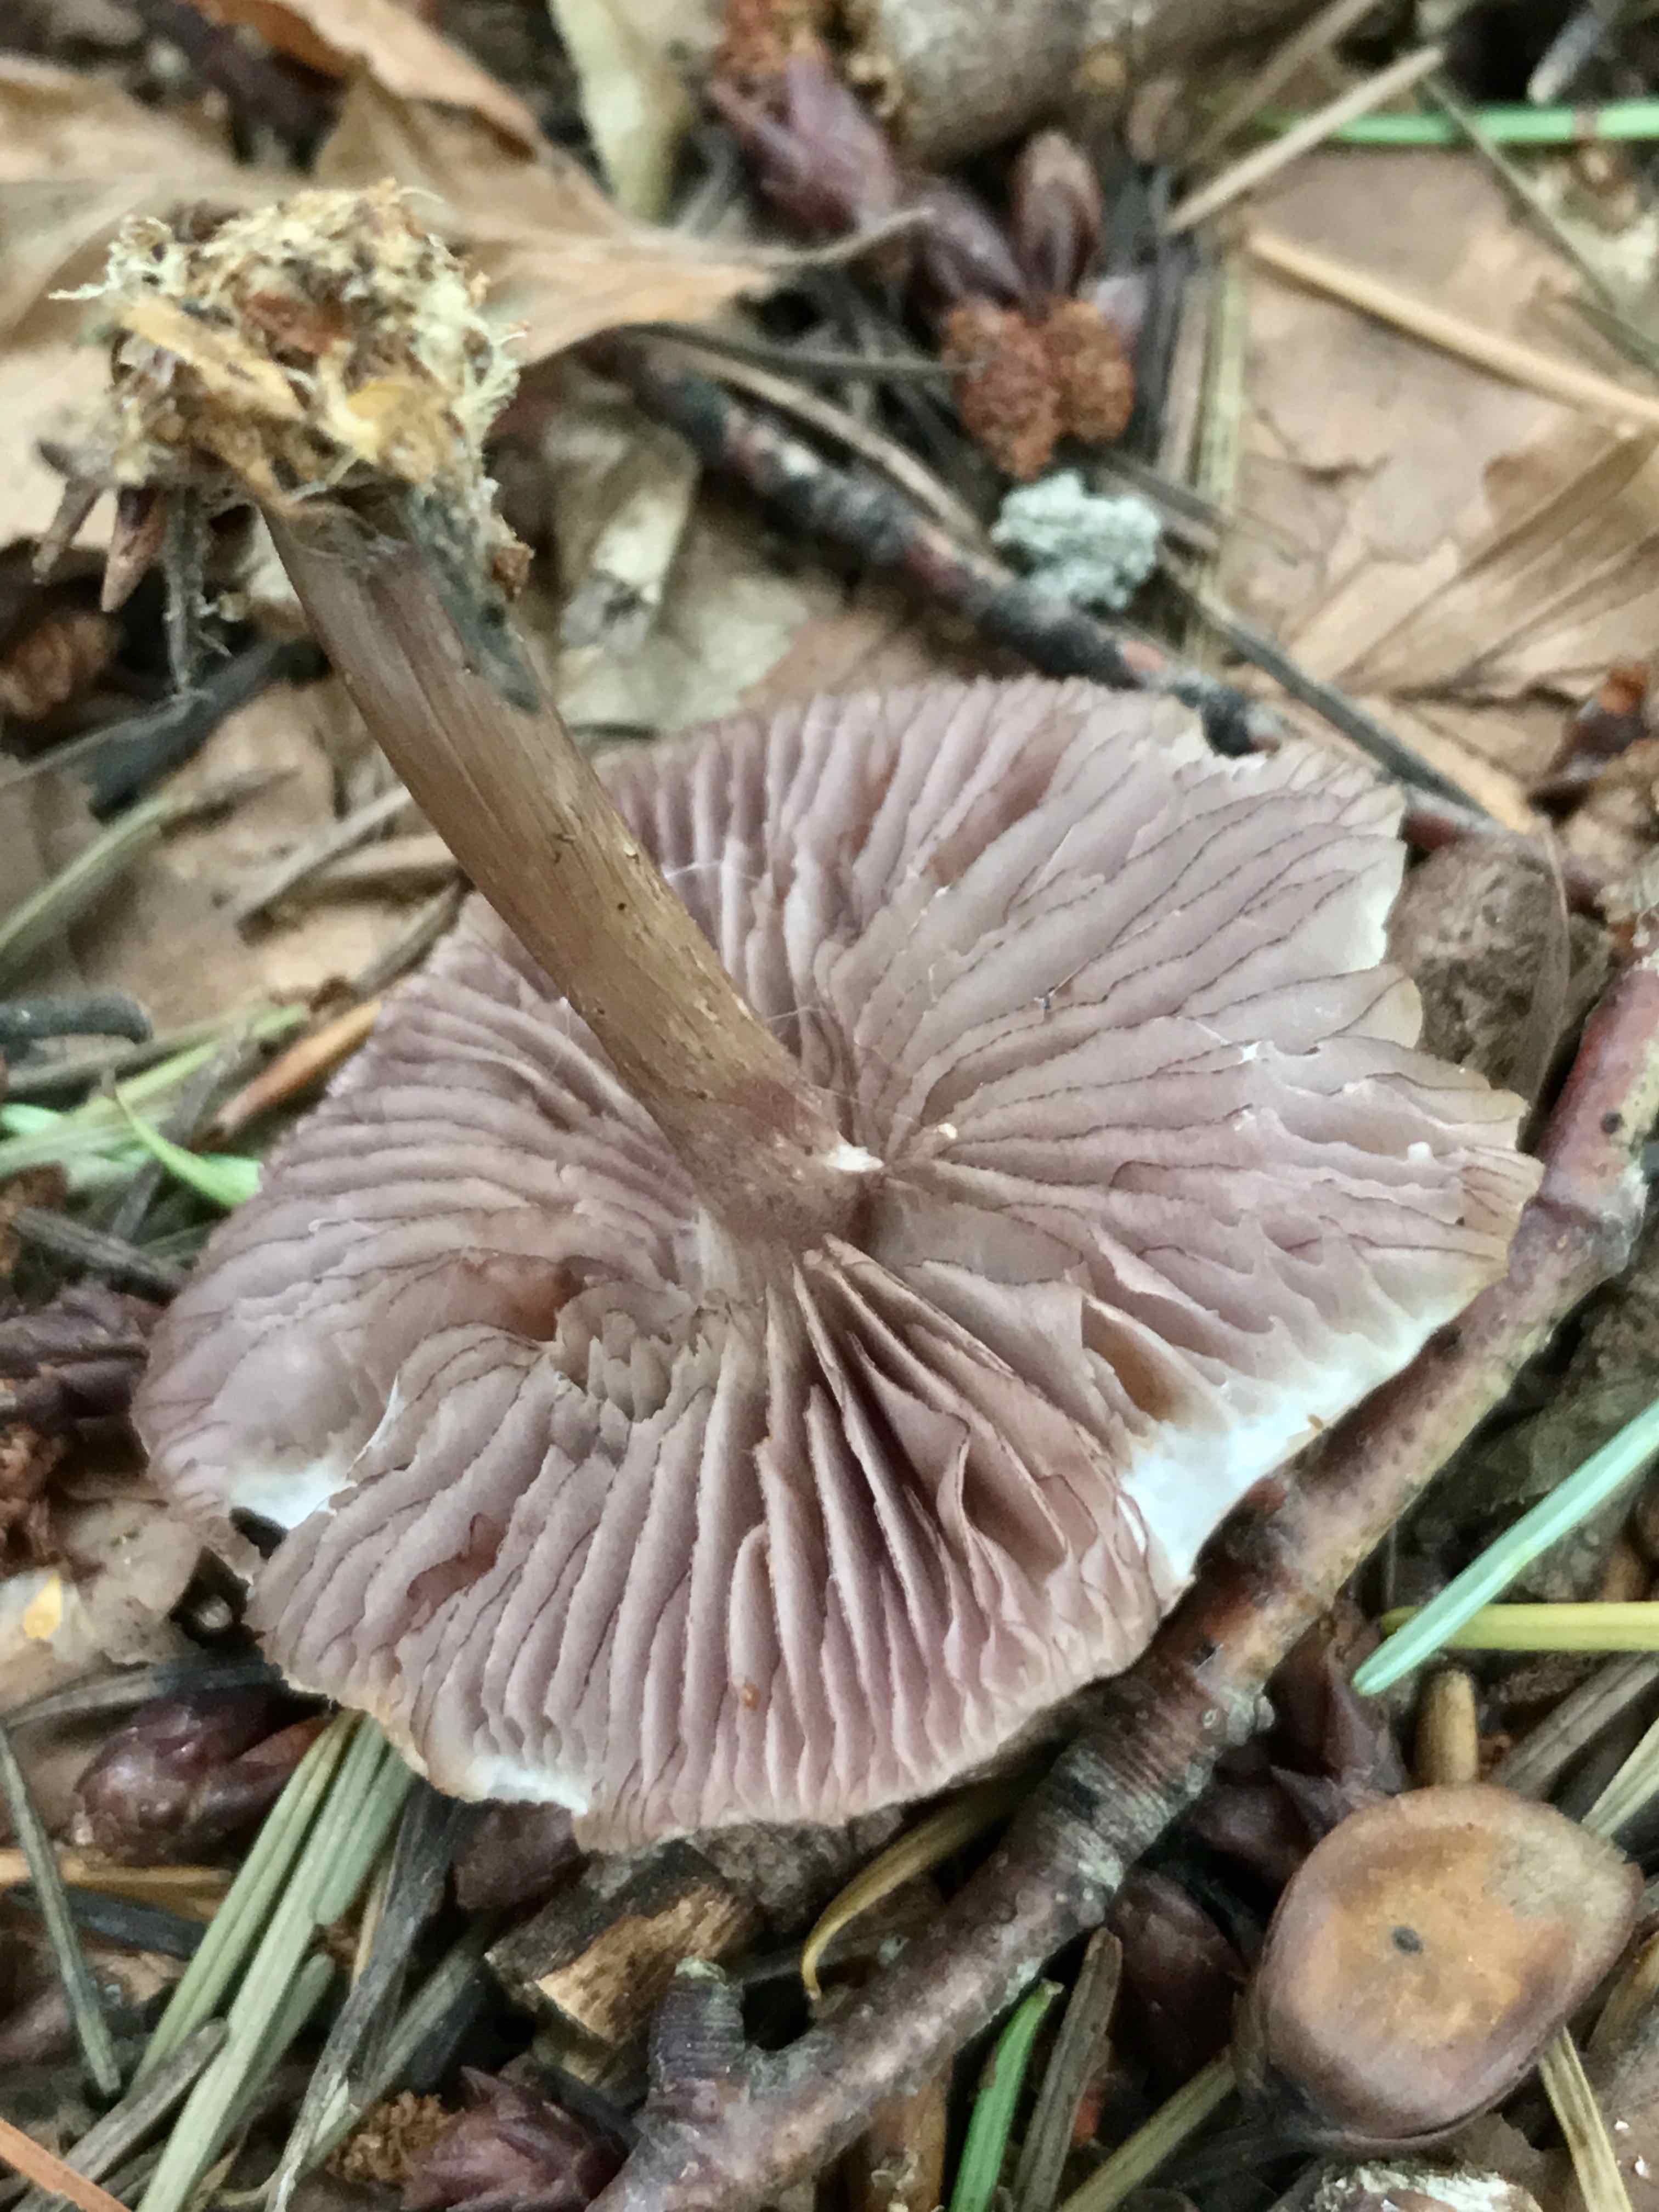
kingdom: Fungi
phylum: Basidiomycota
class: Agaricomycetes
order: Agaricales
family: Mycenaceae
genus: Mycena
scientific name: Mycena pelianthina
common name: mørkbladet huesvamp
